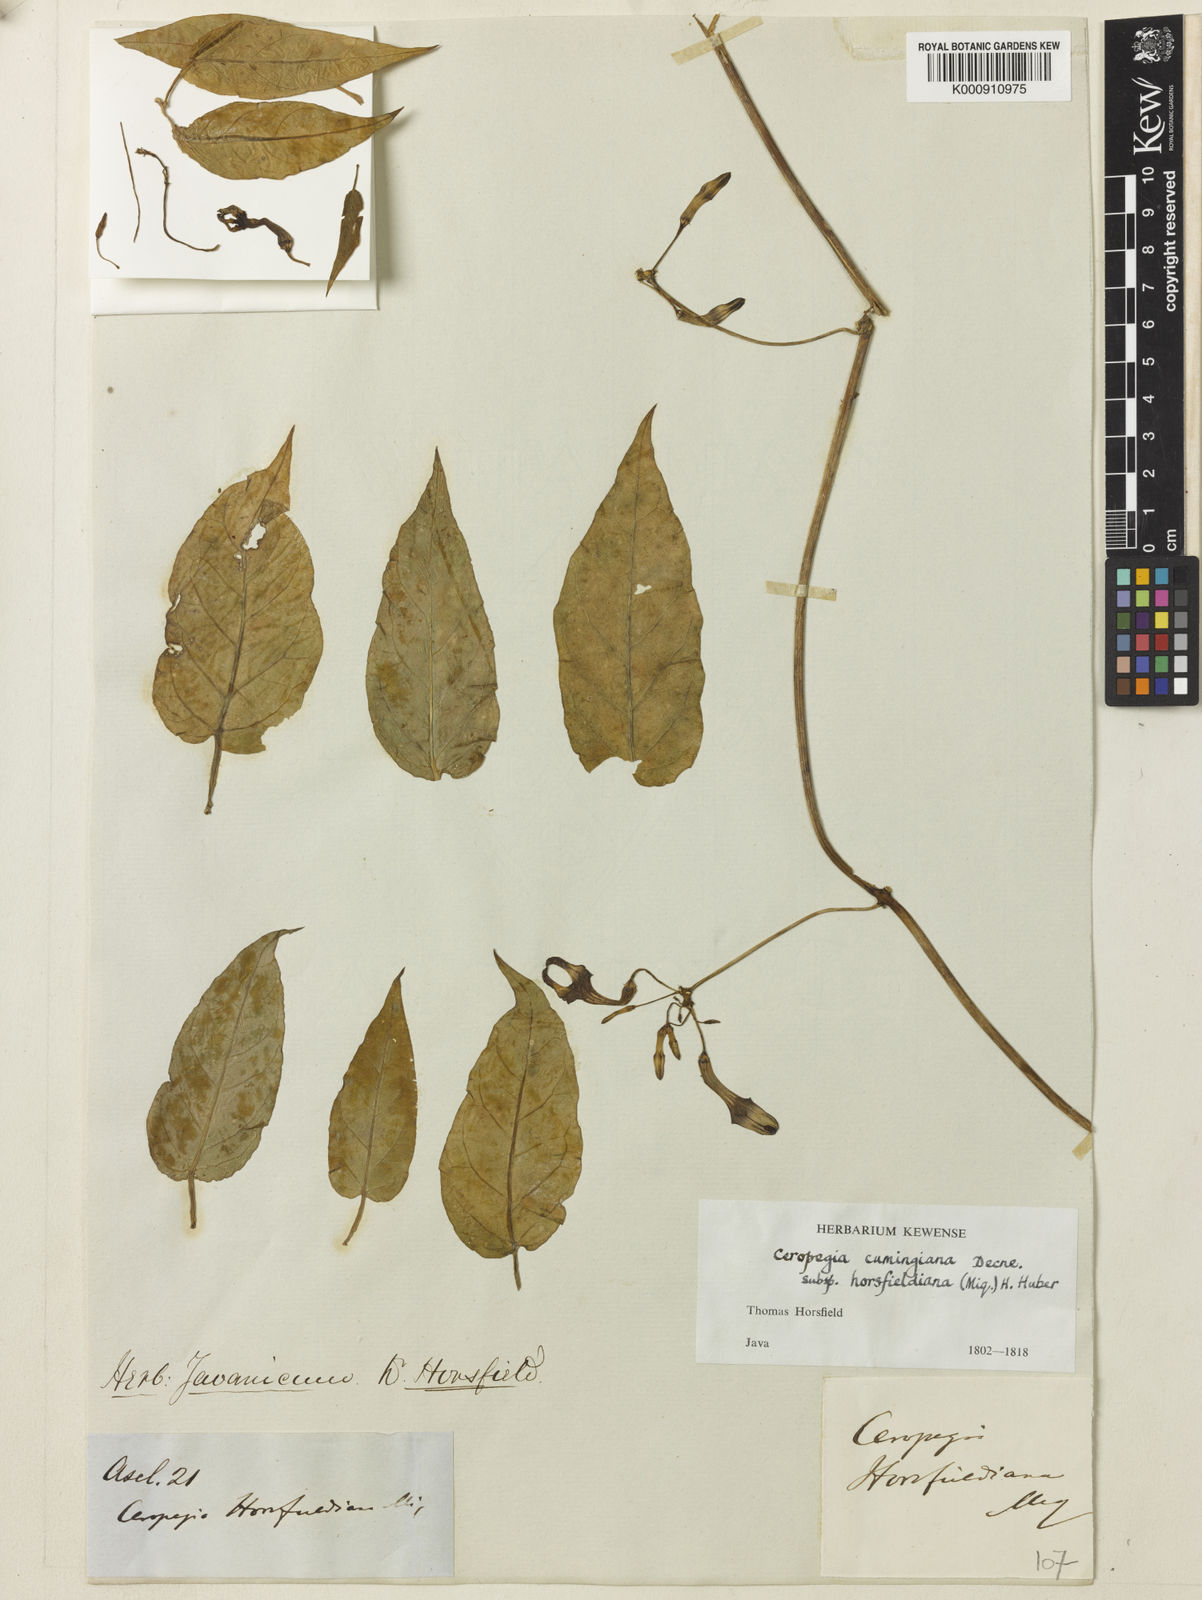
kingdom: Plantae
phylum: Tracheophyta
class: Magnoliopsida
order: Gentianales
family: Apocynaceae
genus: Ceropegia
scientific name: Ceropegia cumingiana
